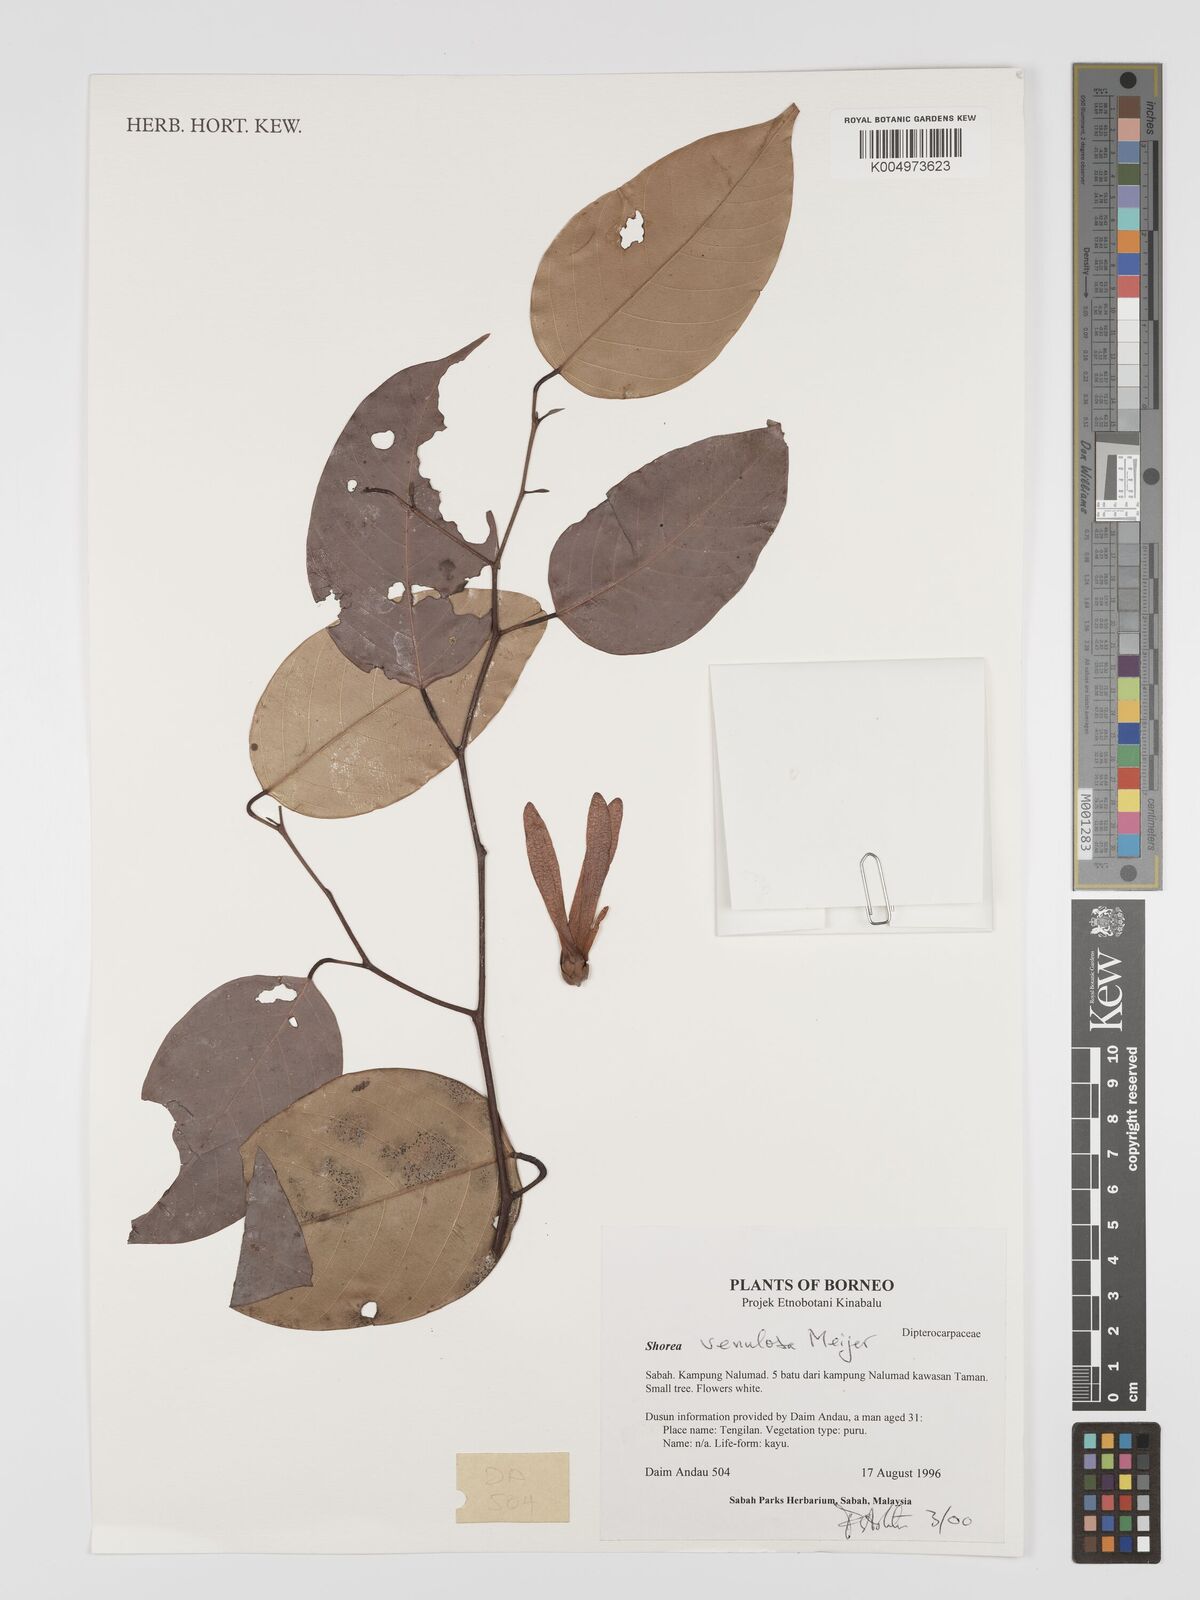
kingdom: Plantae
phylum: Tracheophyta
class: Magnoliopsida
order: Malvales
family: Dipterocarpaceae
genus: Shorea
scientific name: Shorea venulosa
